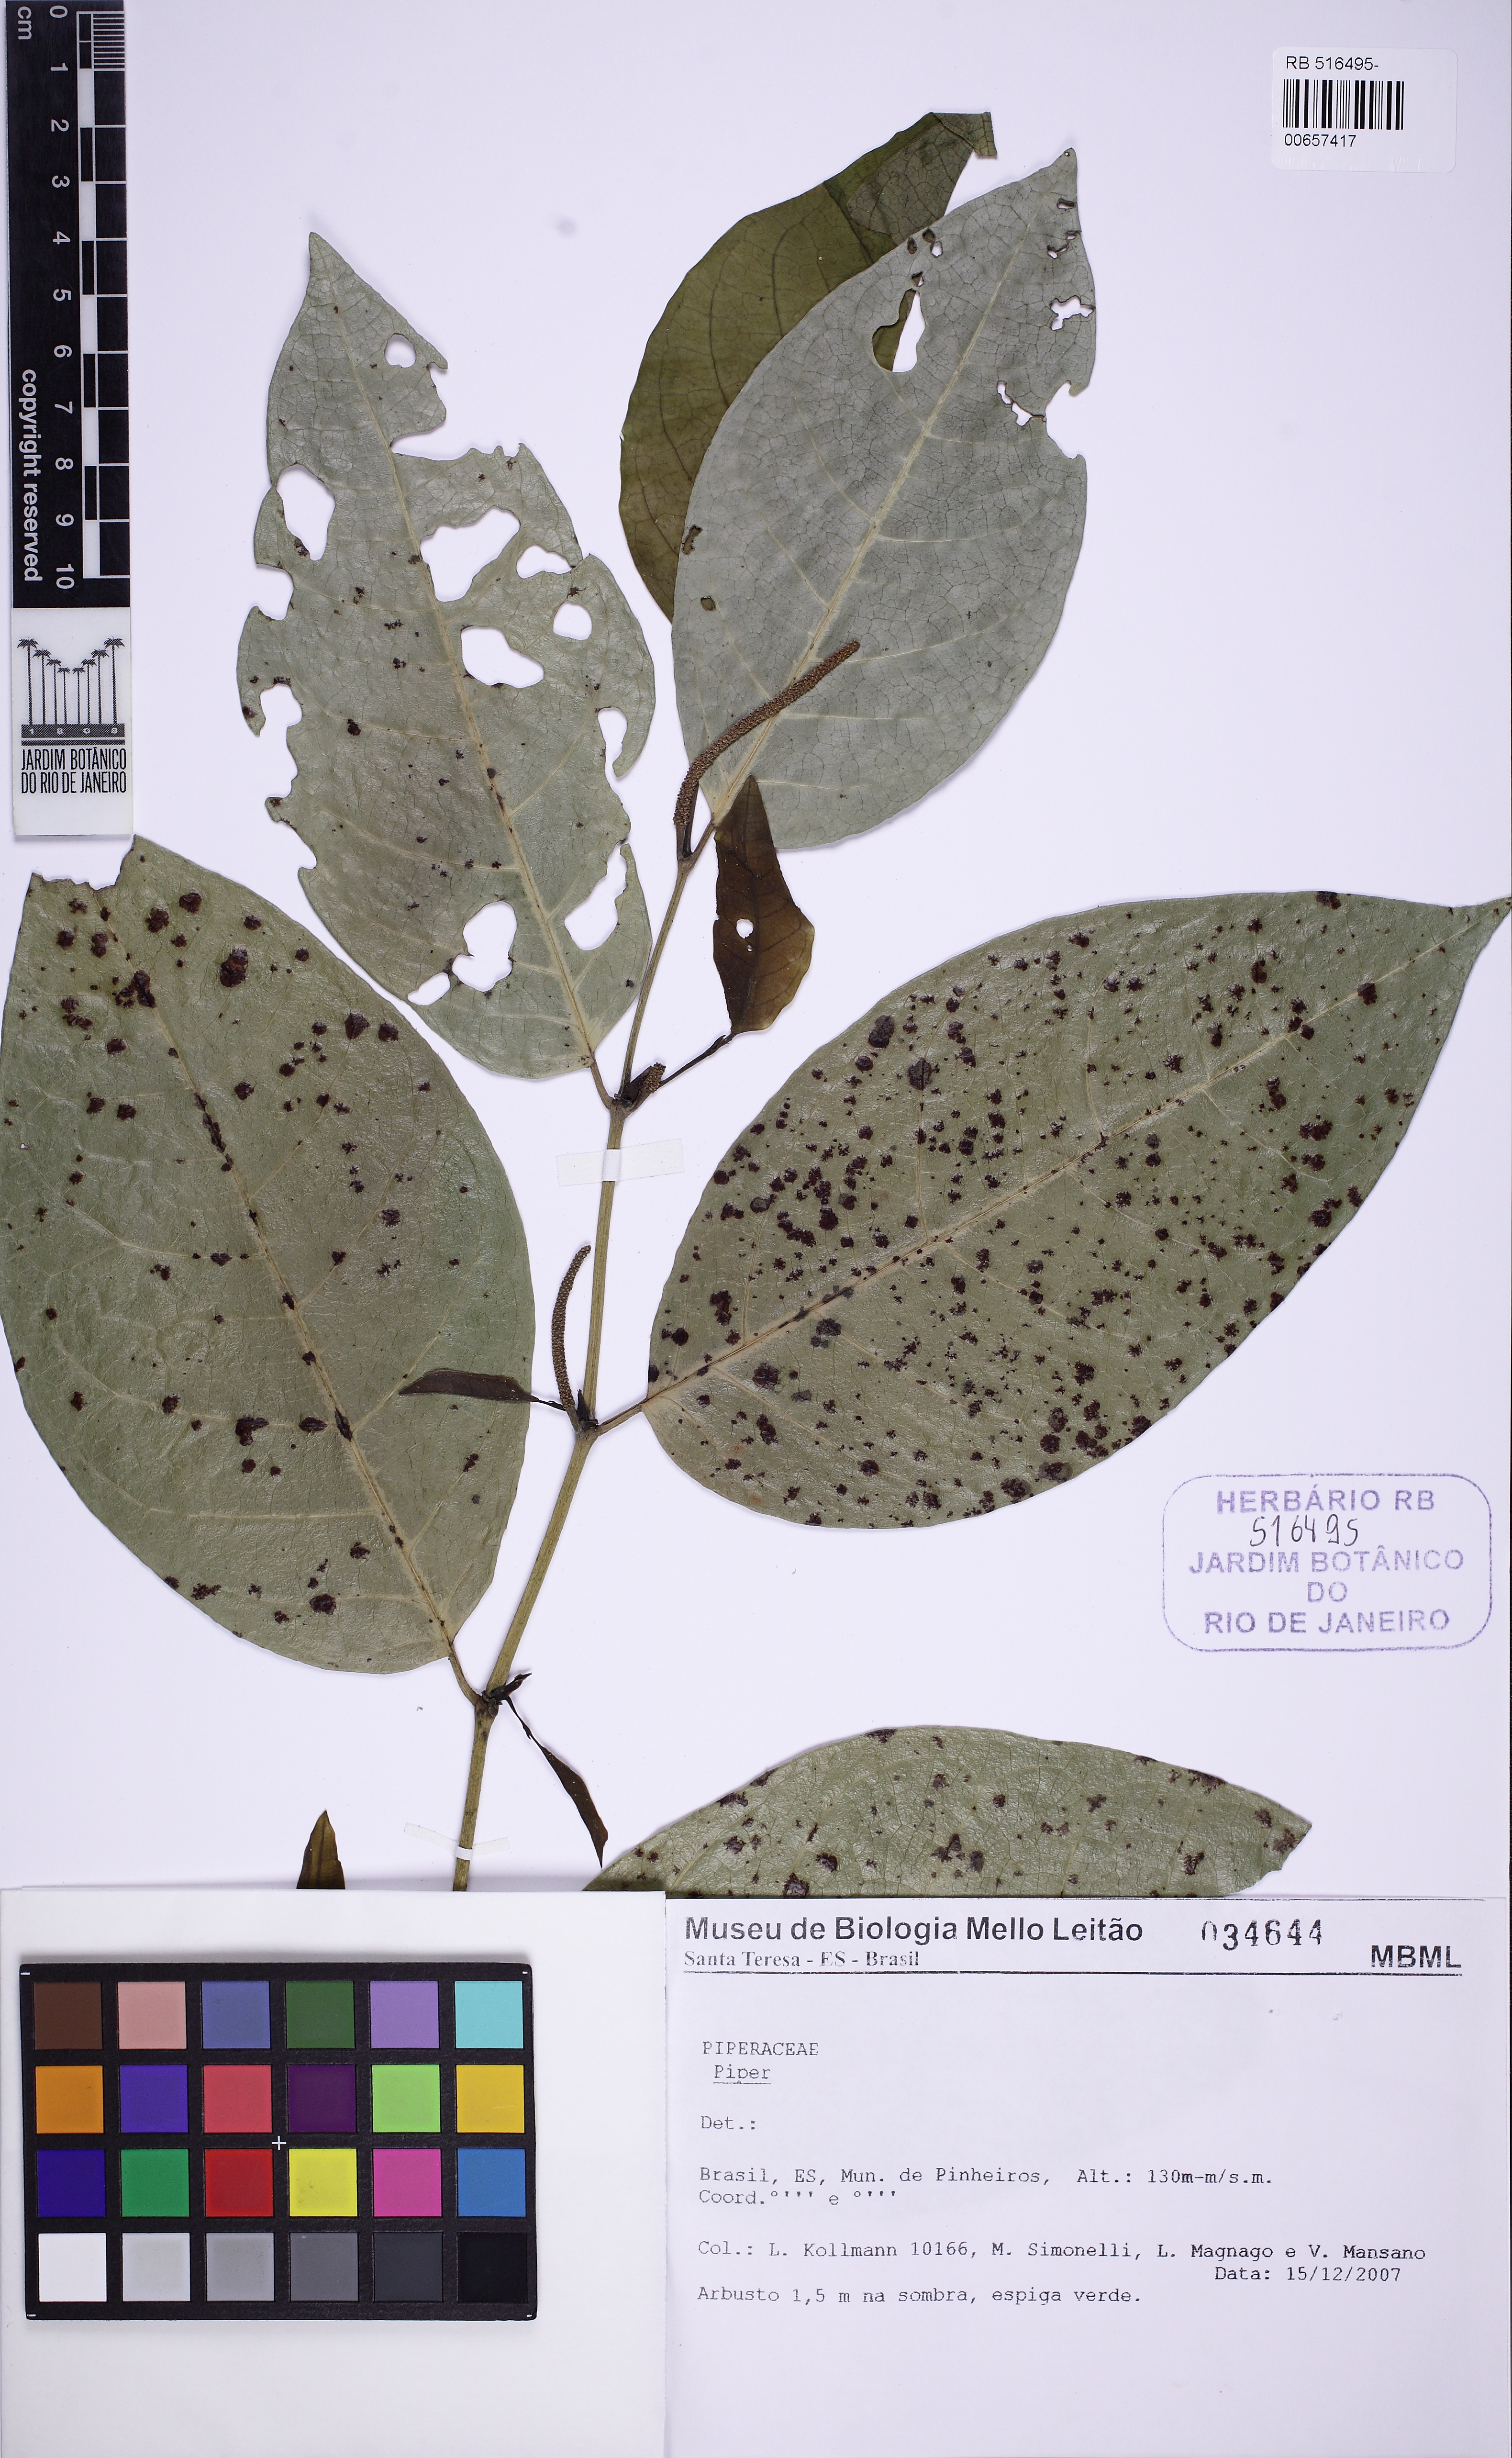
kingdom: Plantae
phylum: Tracheophyta
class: Magnoliopsida
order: Piperales
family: Piperaceae
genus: Piper
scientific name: Piper klotzschianum
